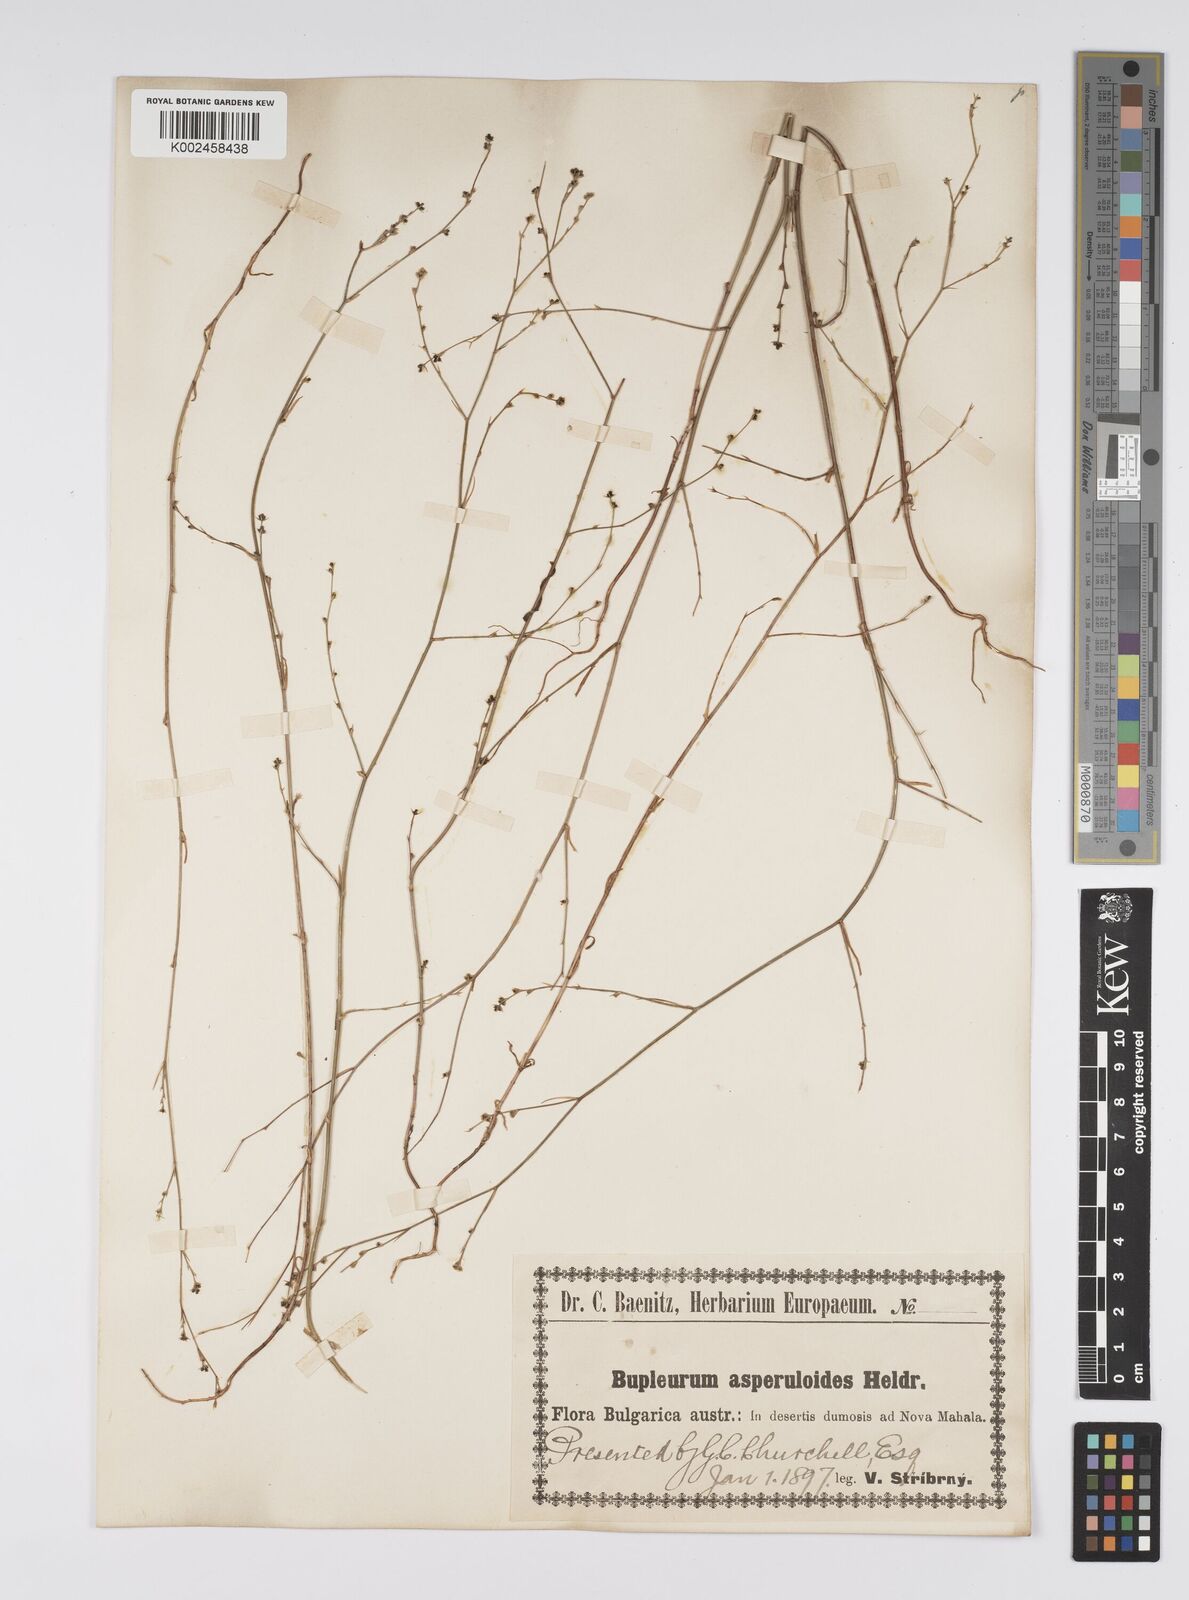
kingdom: Plantae
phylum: Tracheophyta
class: Magnoliopsida
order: Apiales
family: Apiaceae
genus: Bupleurum
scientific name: Bupleurum asperuloides
